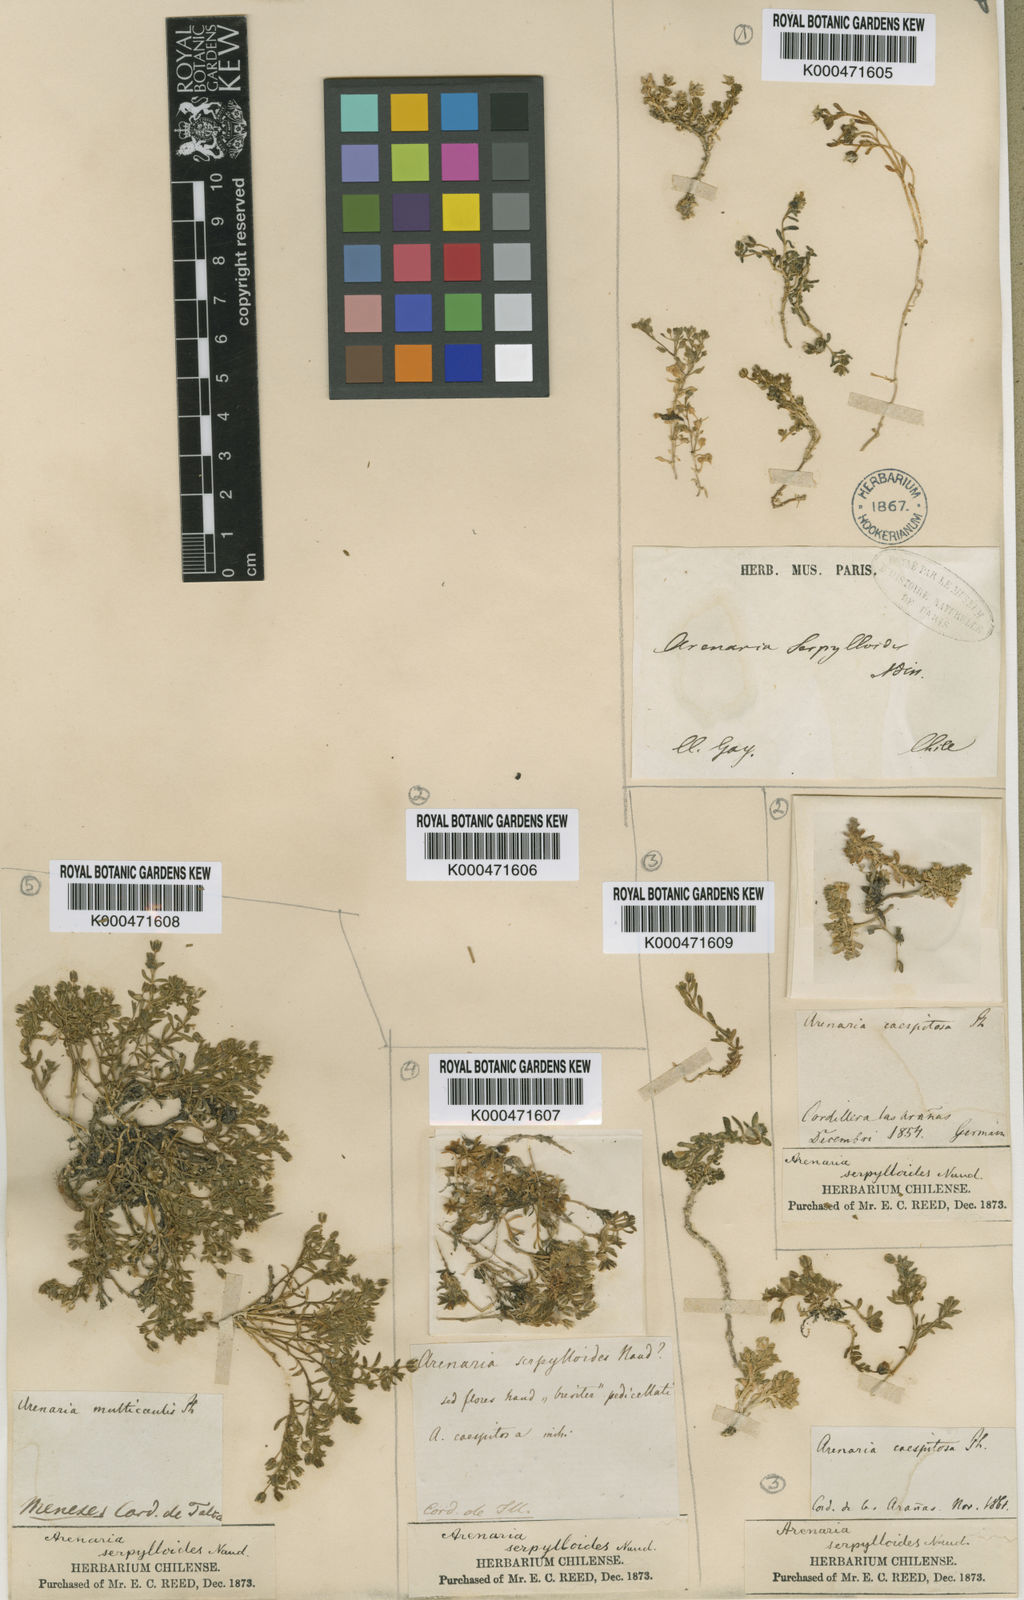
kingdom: Plantae
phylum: Tracheophyta
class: Magnoliopsida
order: Caryophyllales
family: Caryophyllaceae
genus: Arenaria
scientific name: Arenaria
